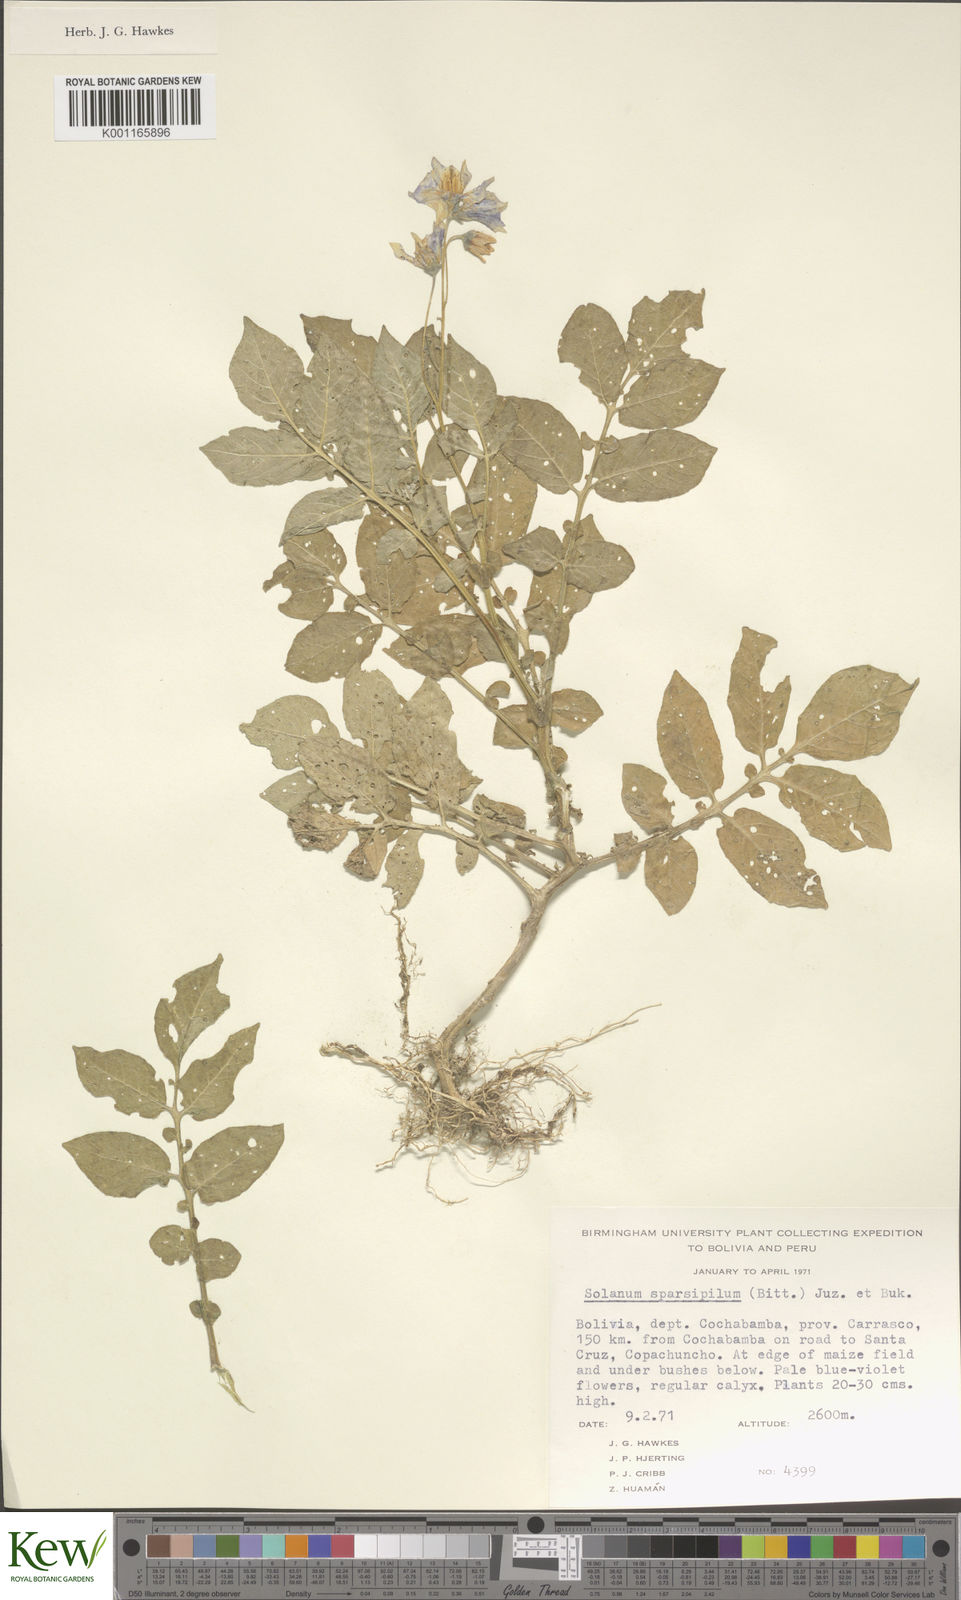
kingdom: Plantae
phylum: Tracheophyta
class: Magnoliopsida
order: Solanales
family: Solanaceae
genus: Solanum
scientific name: Solanum brevicaule
